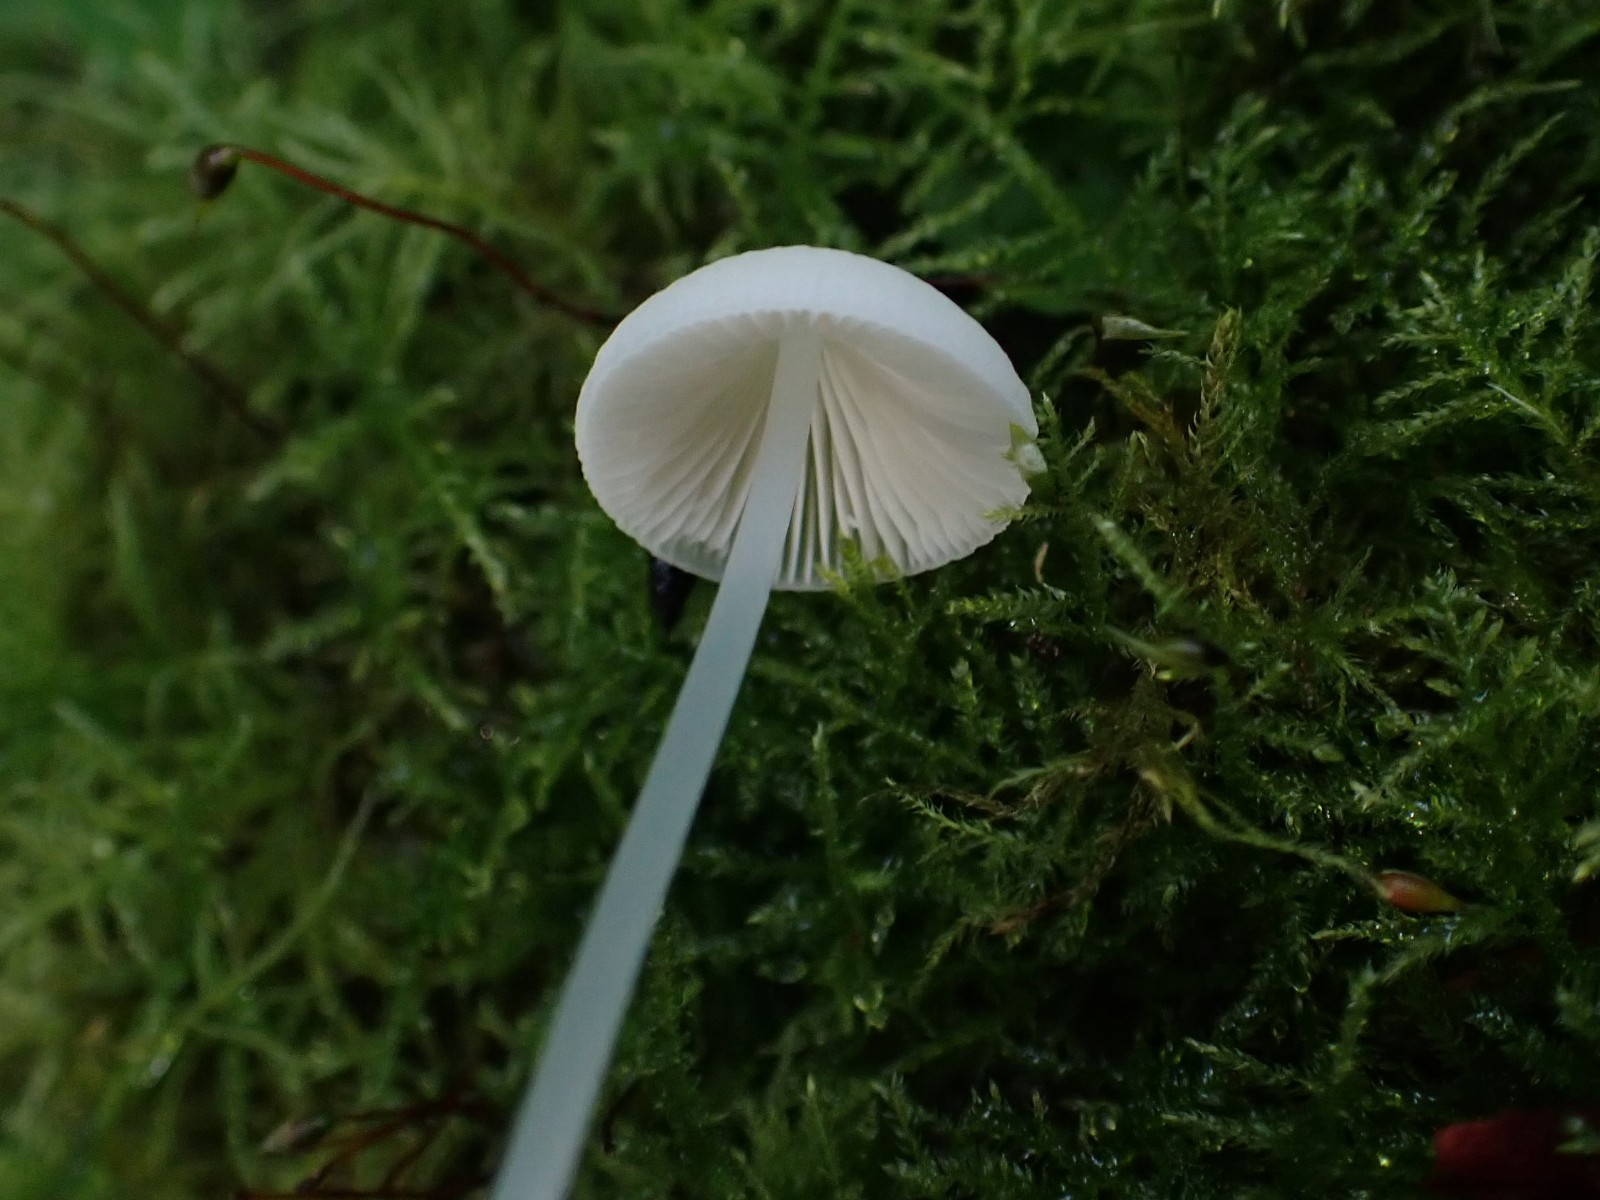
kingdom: Fungi
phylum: Basidiomycota
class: Agaricomycetes
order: Agaricales
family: Mycenaceae
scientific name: Mycenaceae
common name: huesvampfamilien
